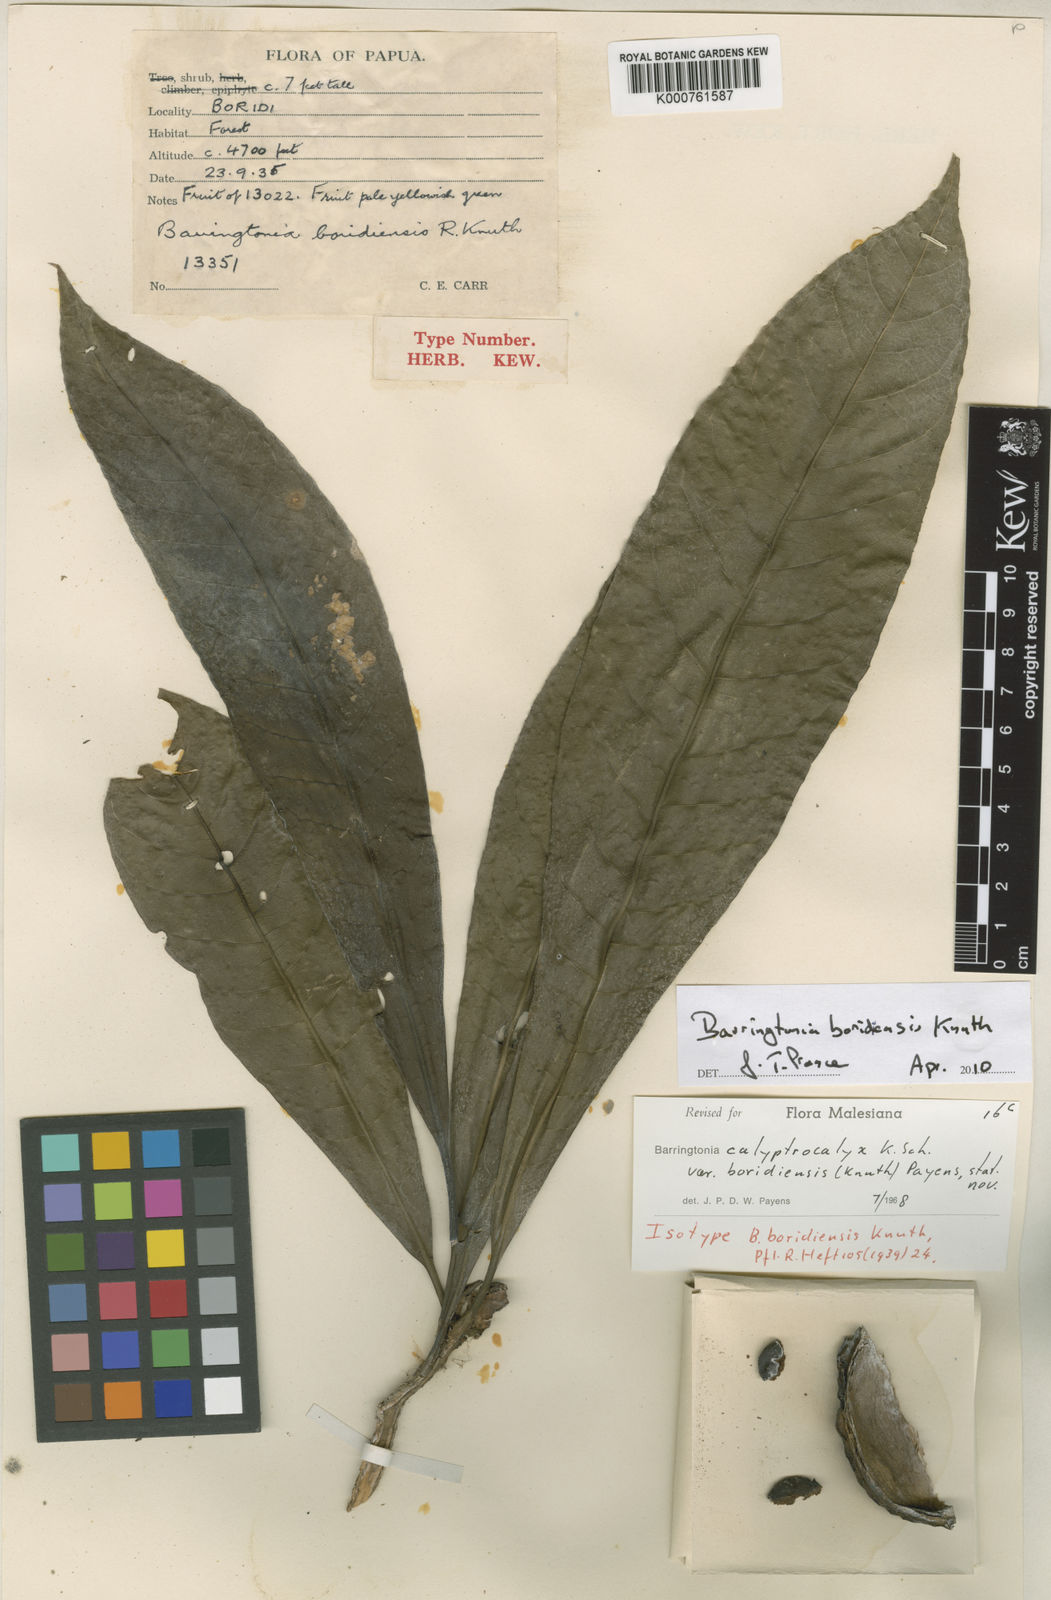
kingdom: Plantae
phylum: Tracheophyta
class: Magnoliopsida
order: Ericales
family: Lecythidaceae
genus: Barringtonia
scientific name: Barringtonia calyptrocalyx
